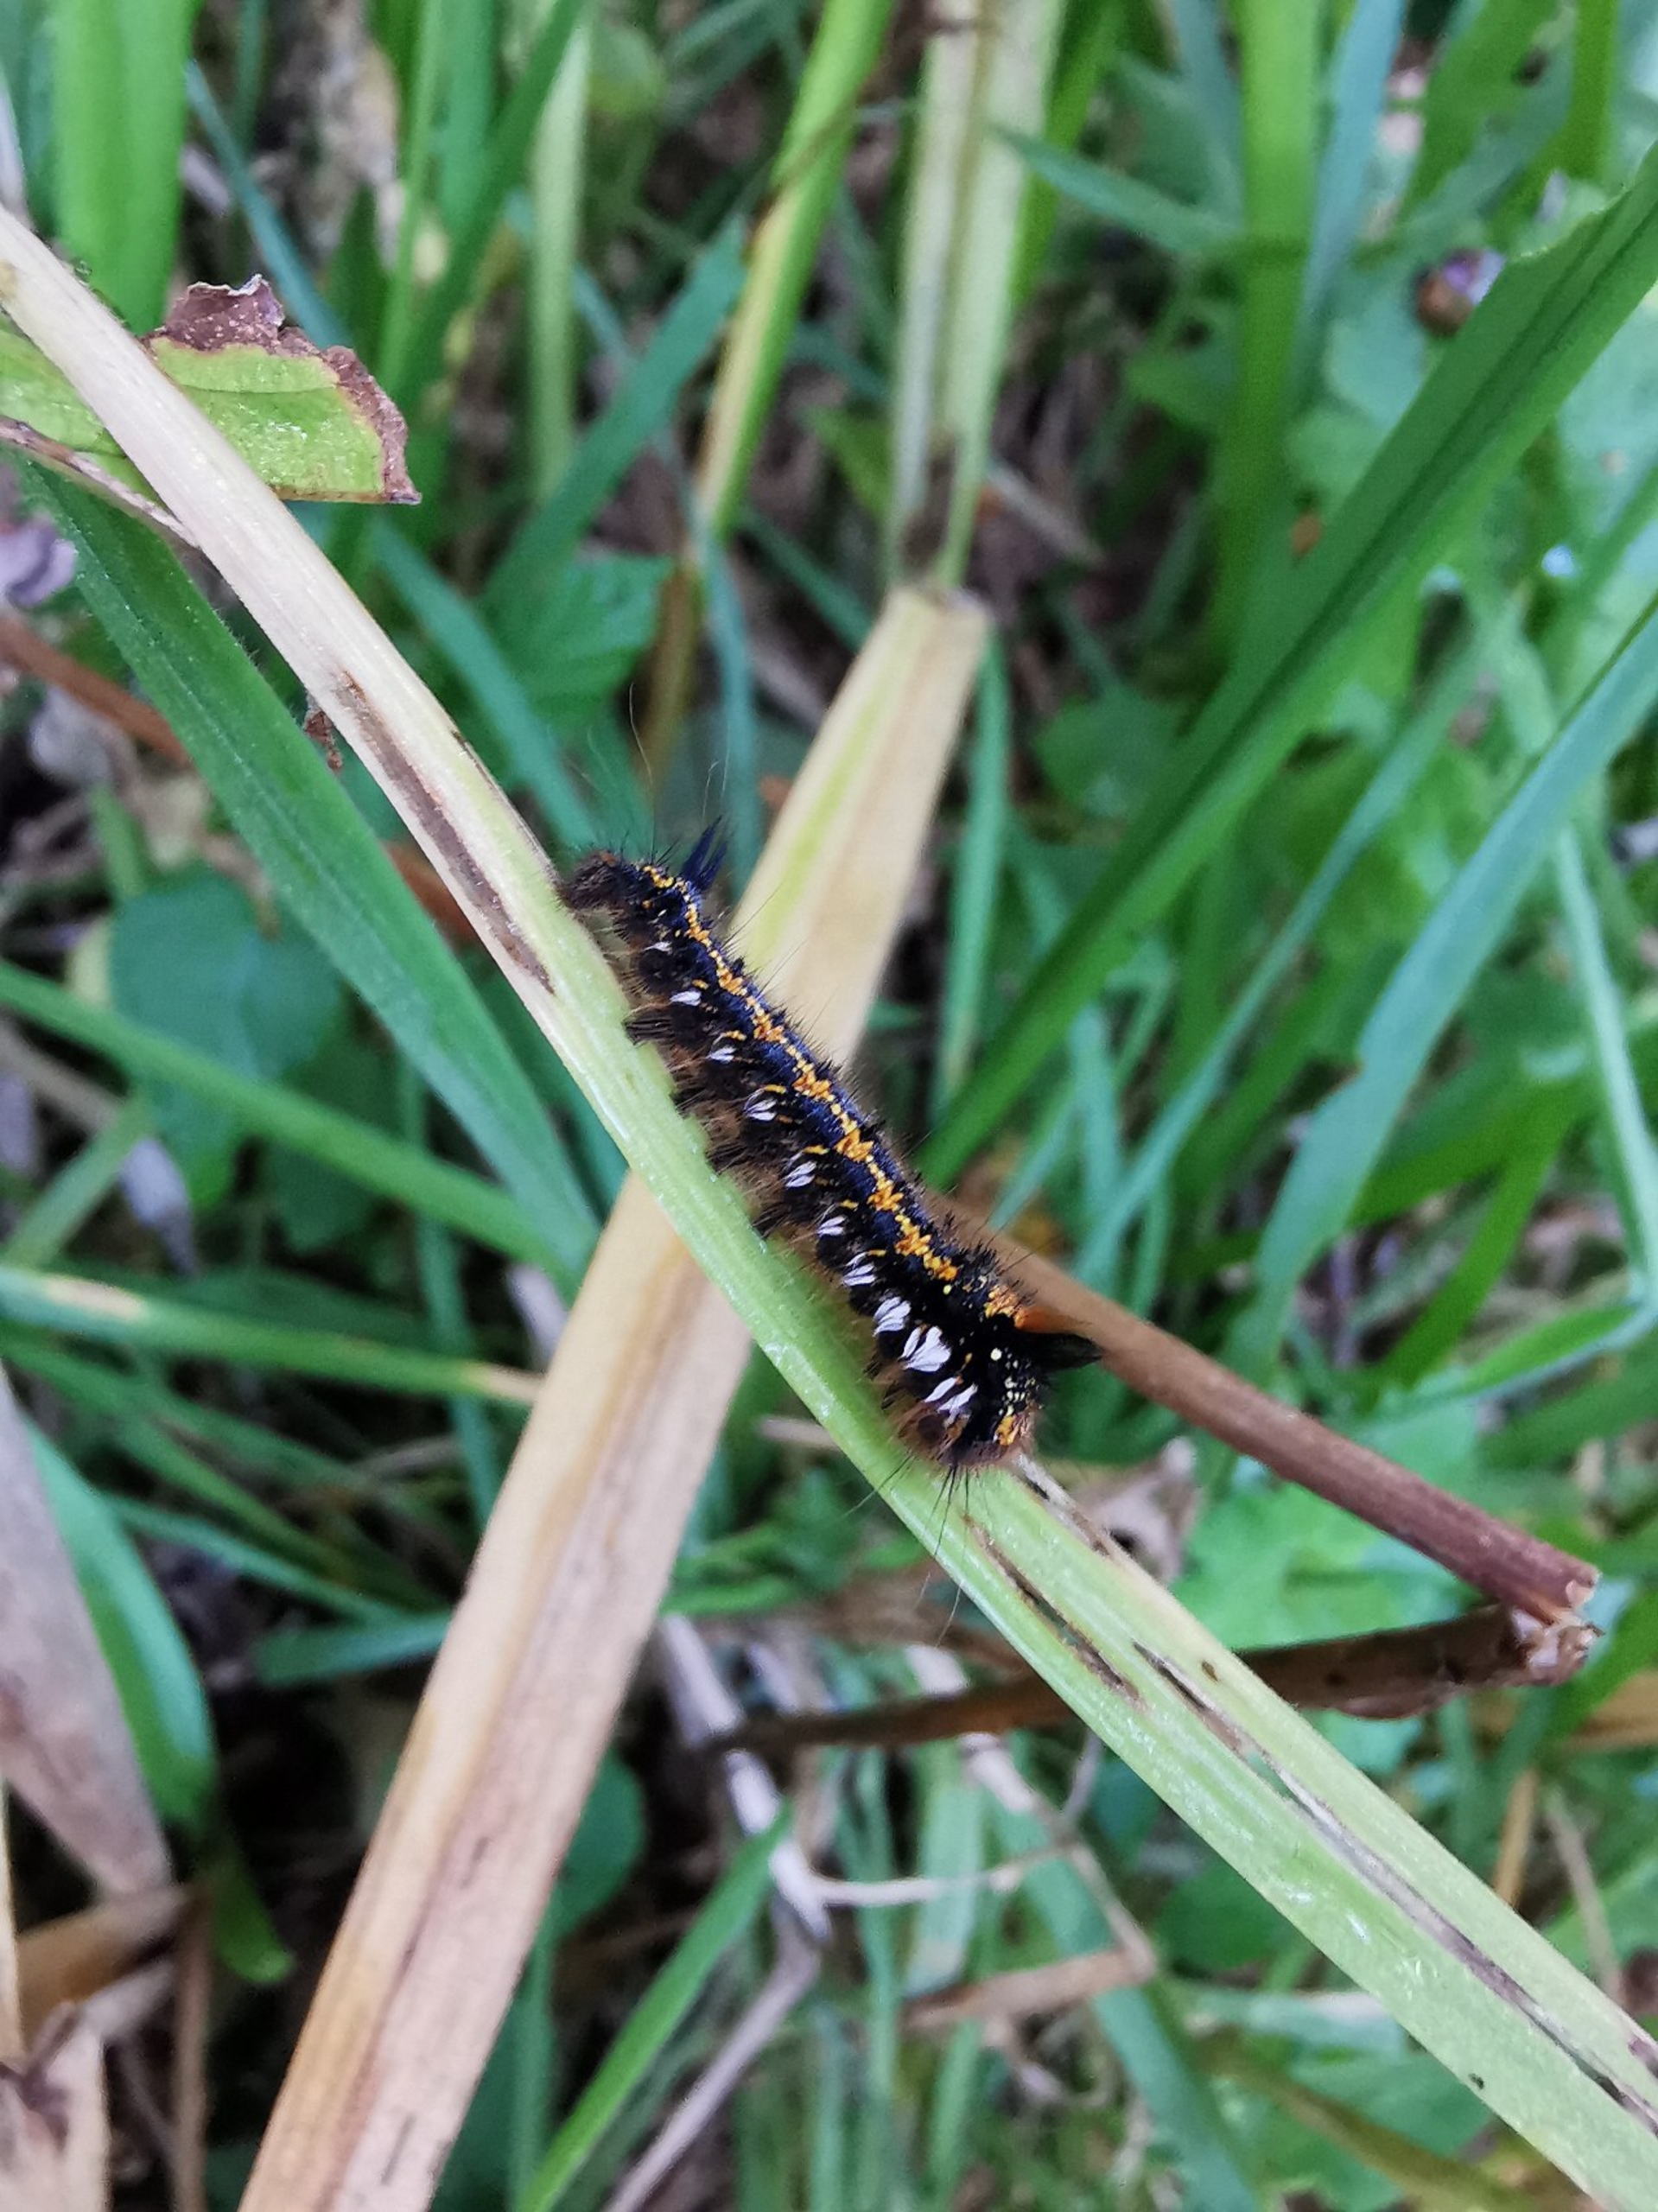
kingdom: Animalia
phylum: Arthropoda
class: Insecta
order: Lepidoptera
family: Lasiocampidae
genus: Euthrix
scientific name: Euthrix potatoria
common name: Græsspinder
